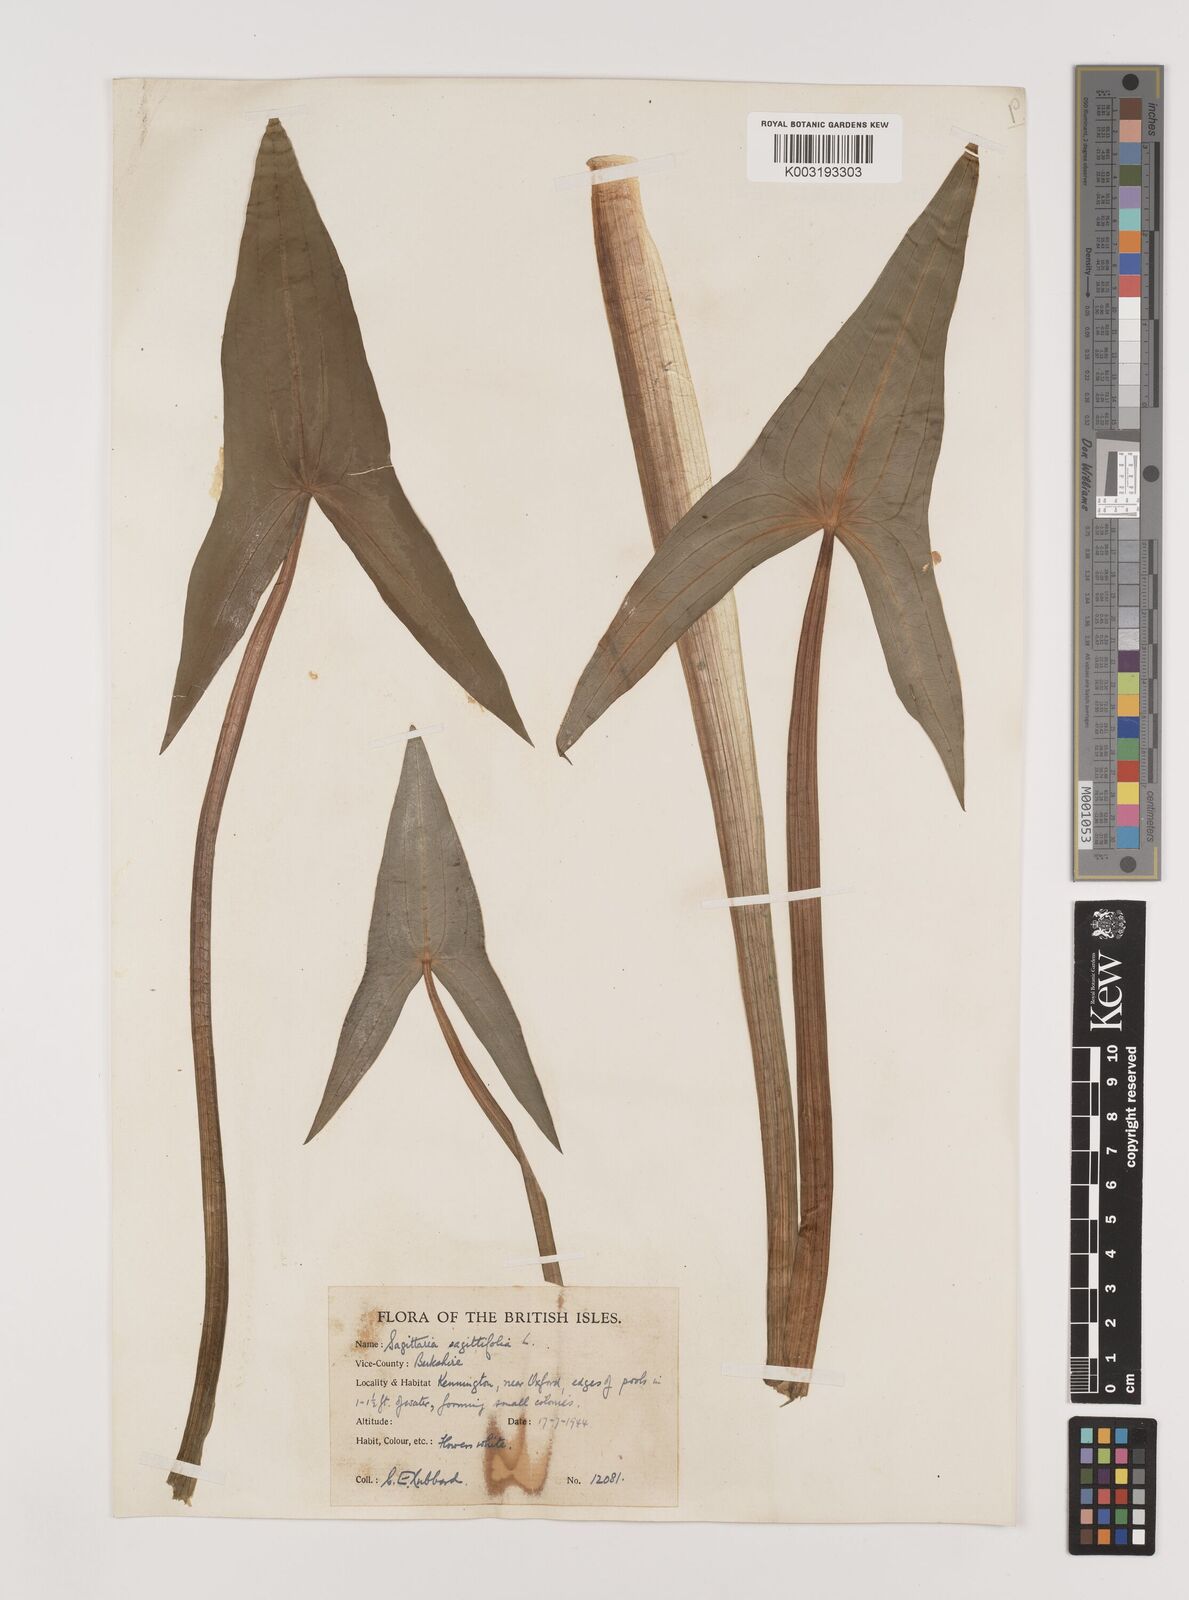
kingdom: Plantae
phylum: Tracheophyta
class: Liliopsida
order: Alismatales
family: Alismataceae
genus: Sagittaria
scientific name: Sagittaria sagittifolia
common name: Arrowhead
